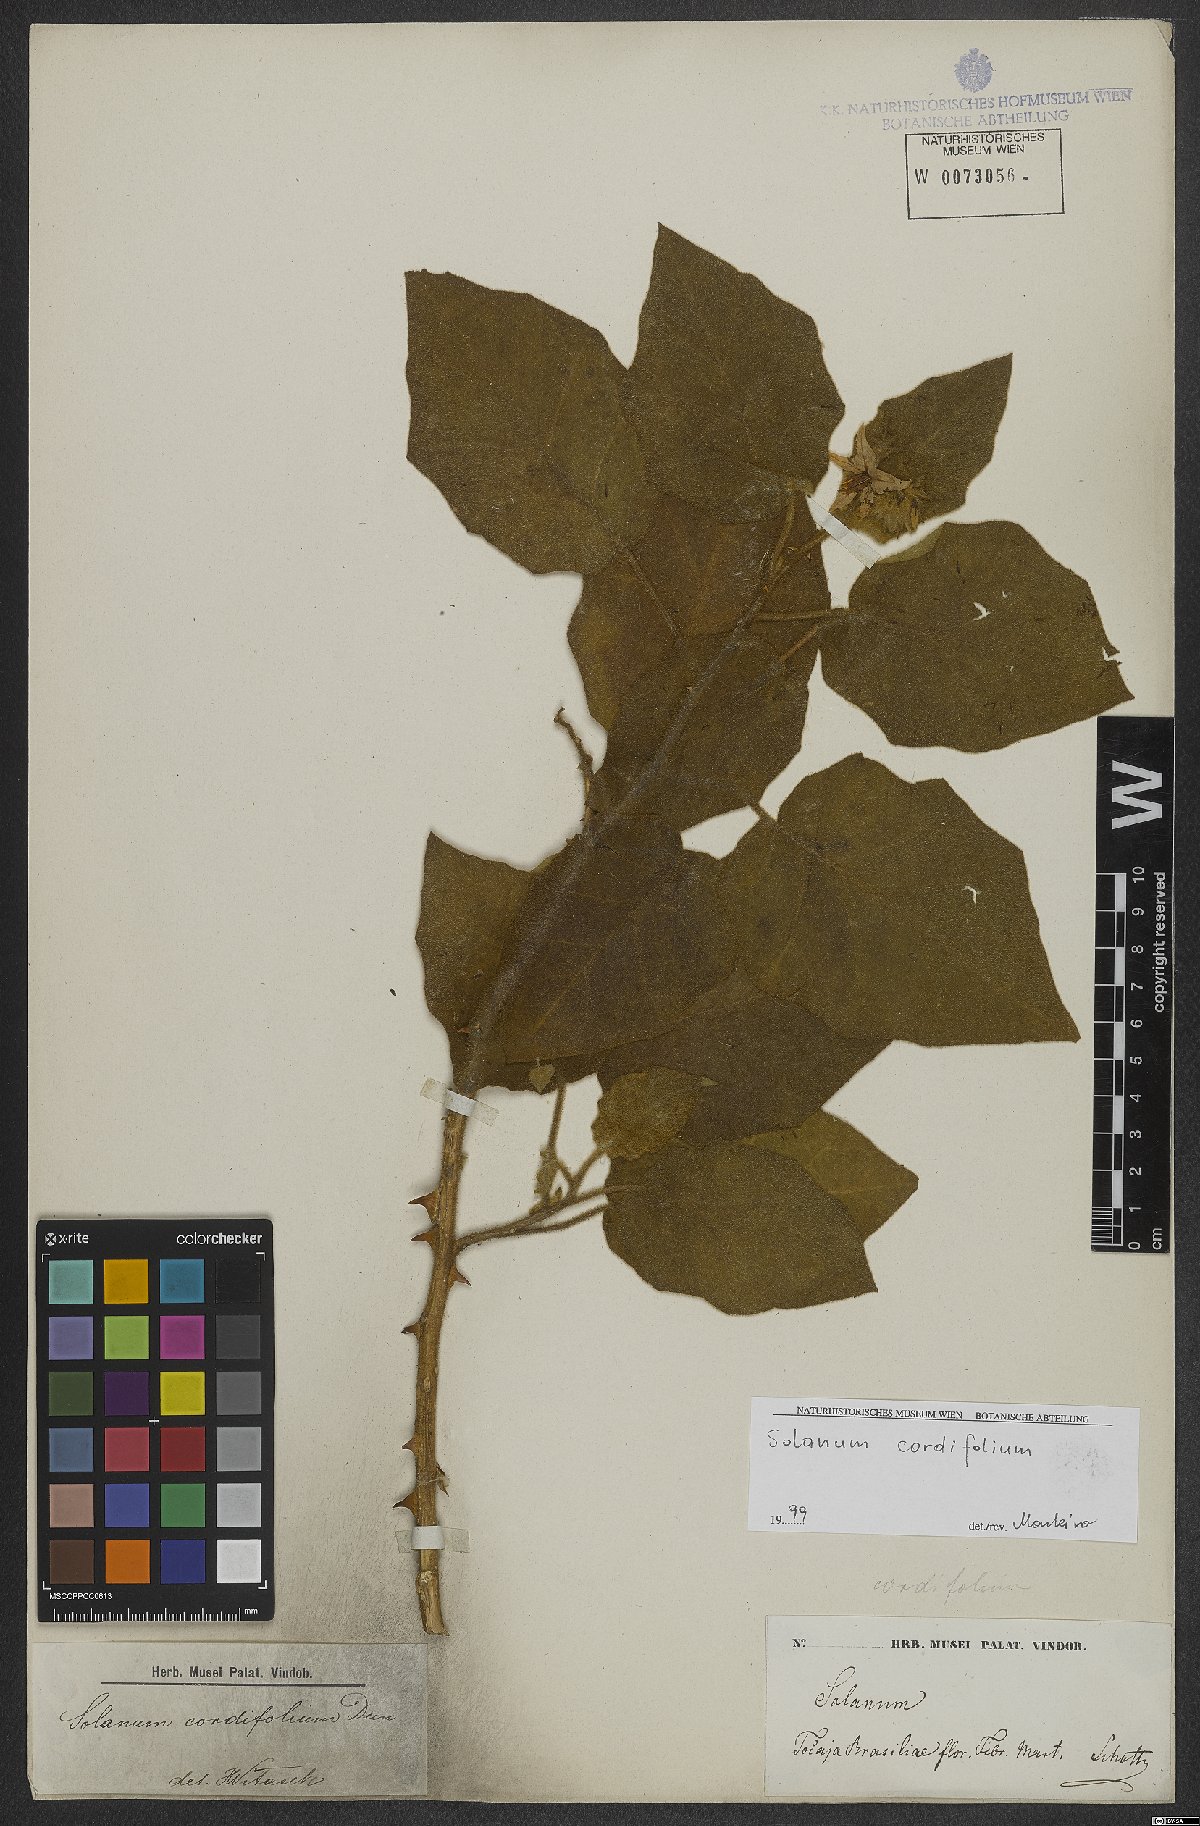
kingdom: Plantae
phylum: Tracheophyta
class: Magnoliopsida
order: Solanales
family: Solanaceae
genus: Solanum
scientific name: Solanum cordifolium
